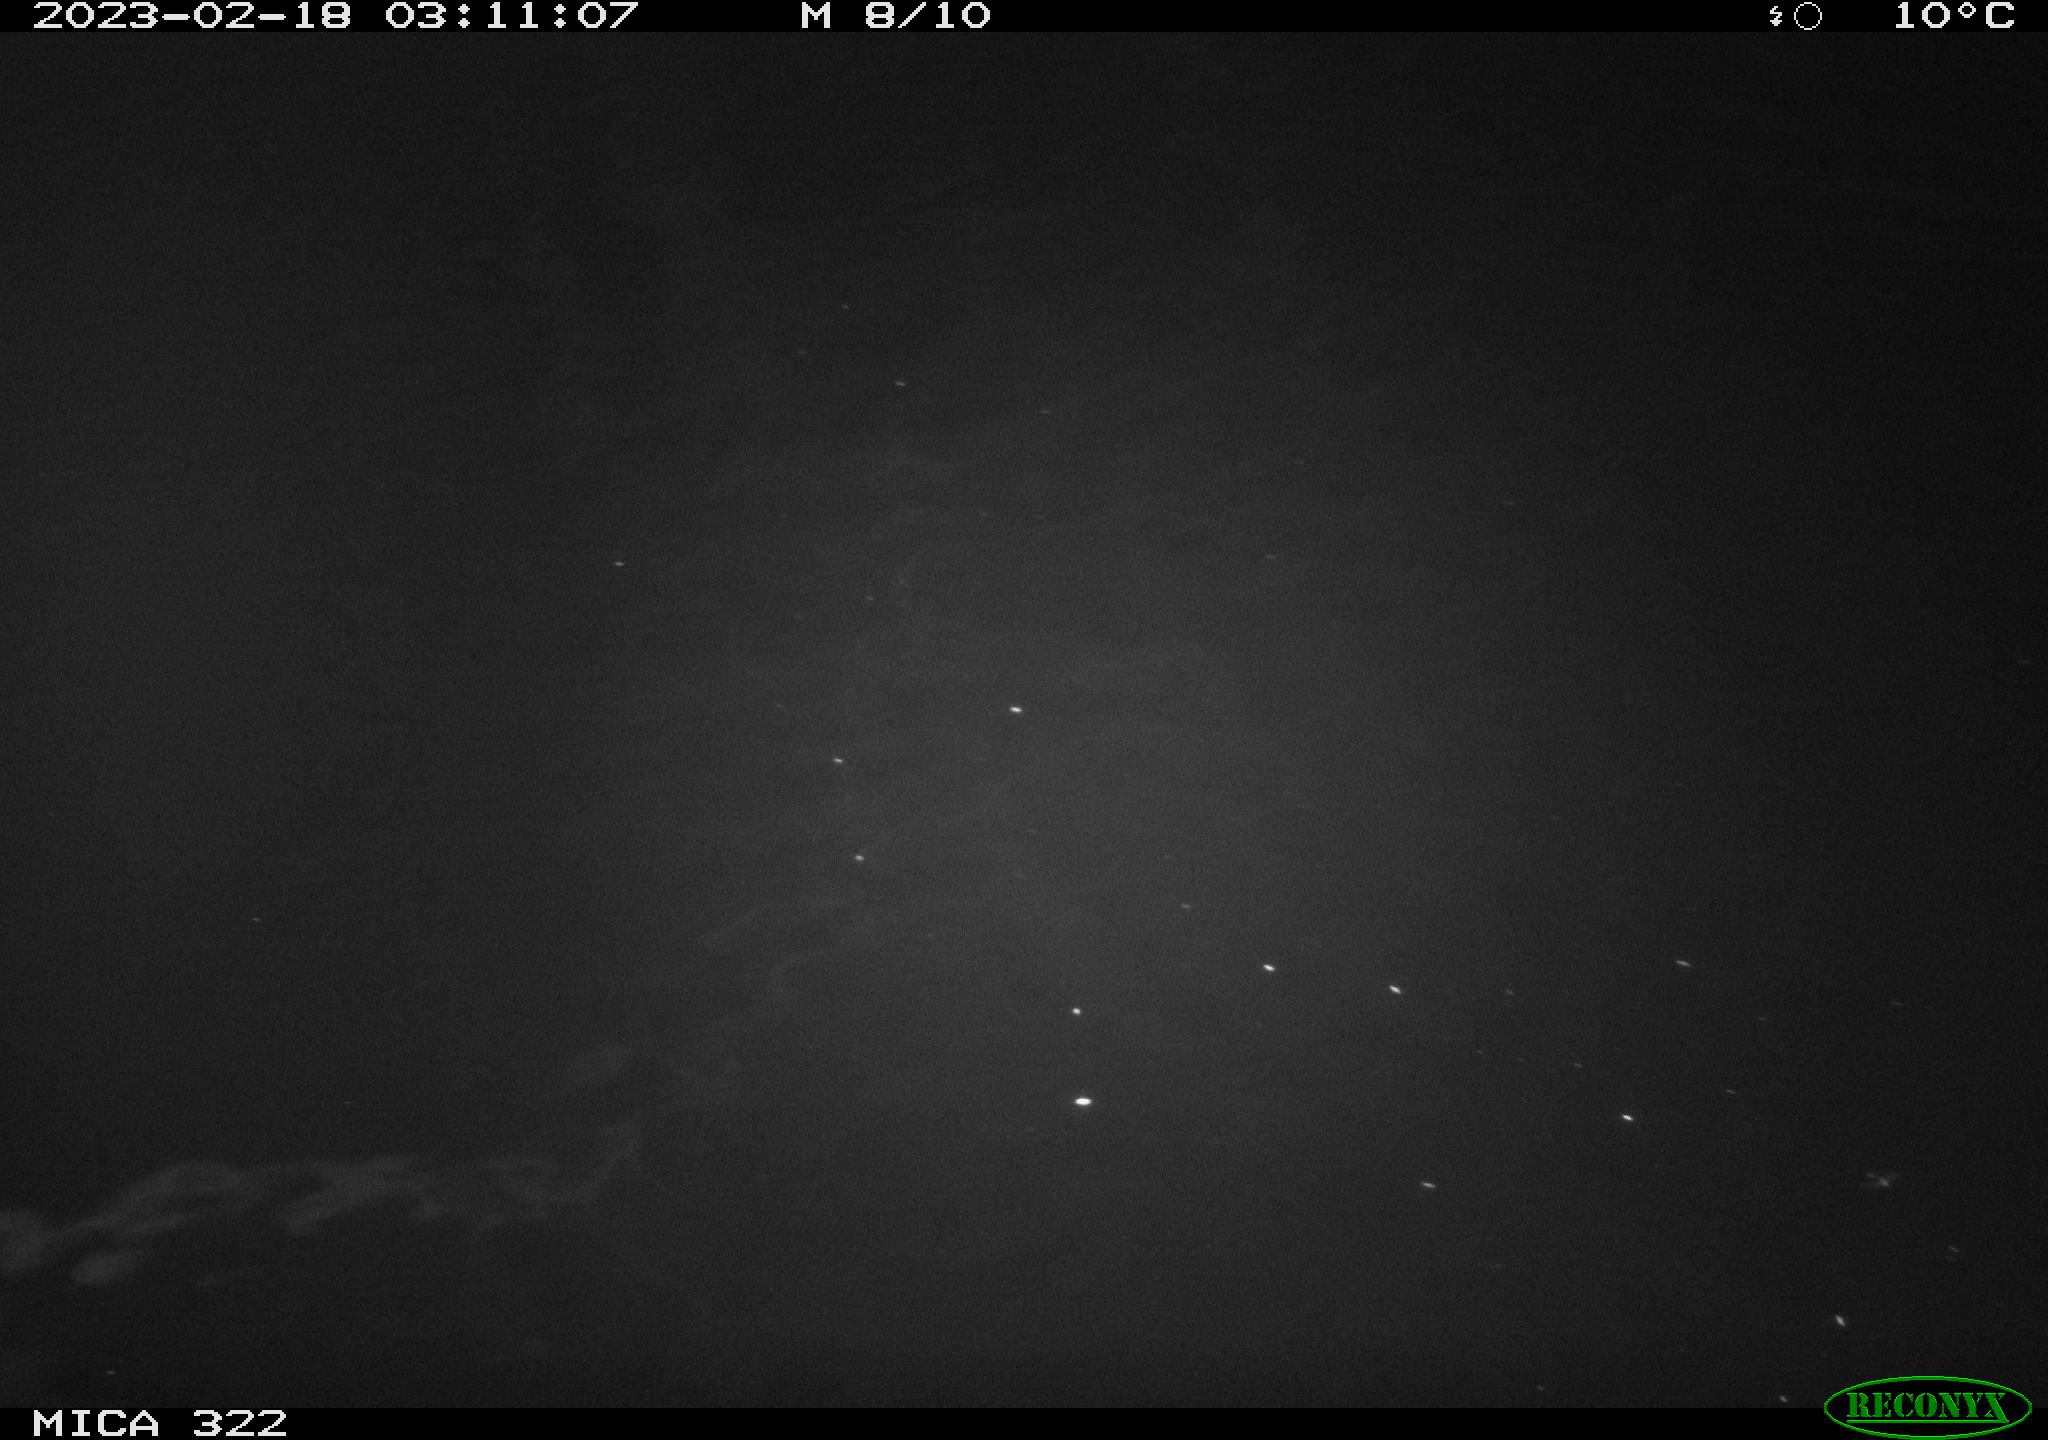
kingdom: Animalia
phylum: Chordata
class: Mammalia
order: Rodentia
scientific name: Rodentia
